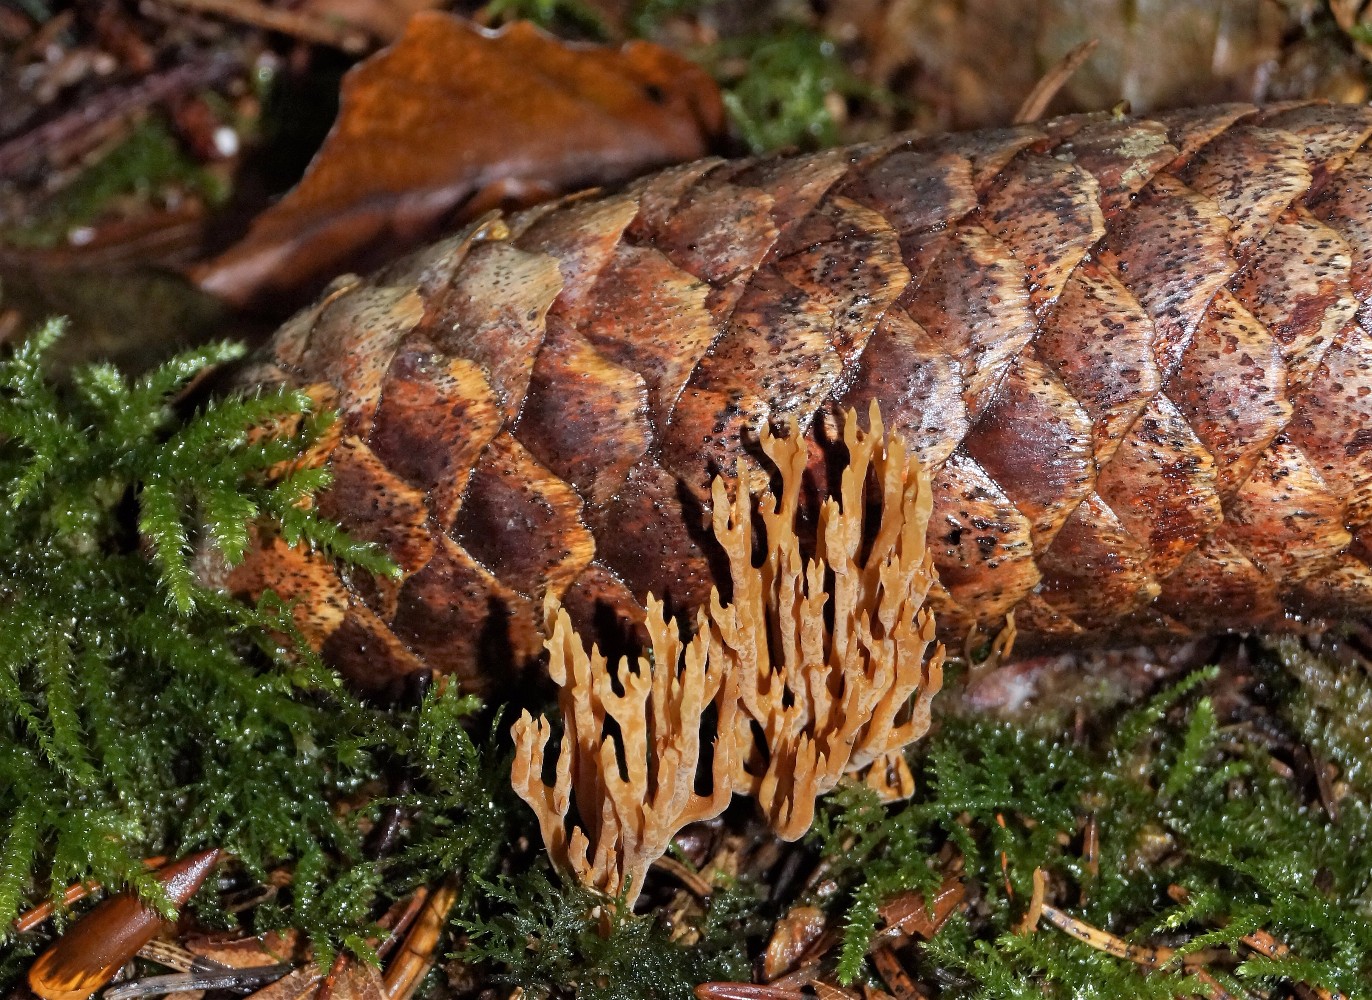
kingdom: Fungi
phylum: Basidiomycota
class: Agaricomycetes
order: Gomphales
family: Gomphaceae
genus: Phaeoclavulina
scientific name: Phaeoclavulina eumorpha
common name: gran-koralsvamp
